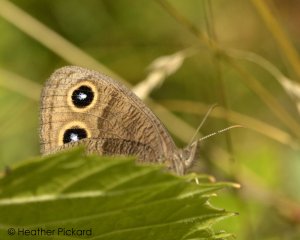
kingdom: Animalia
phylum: Arthropoda
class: Insecta
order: Lepidoptera
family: Nymphalidae
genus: Cercyonis
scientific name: Cercyonis pegala
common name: Common Wood-Nymph
